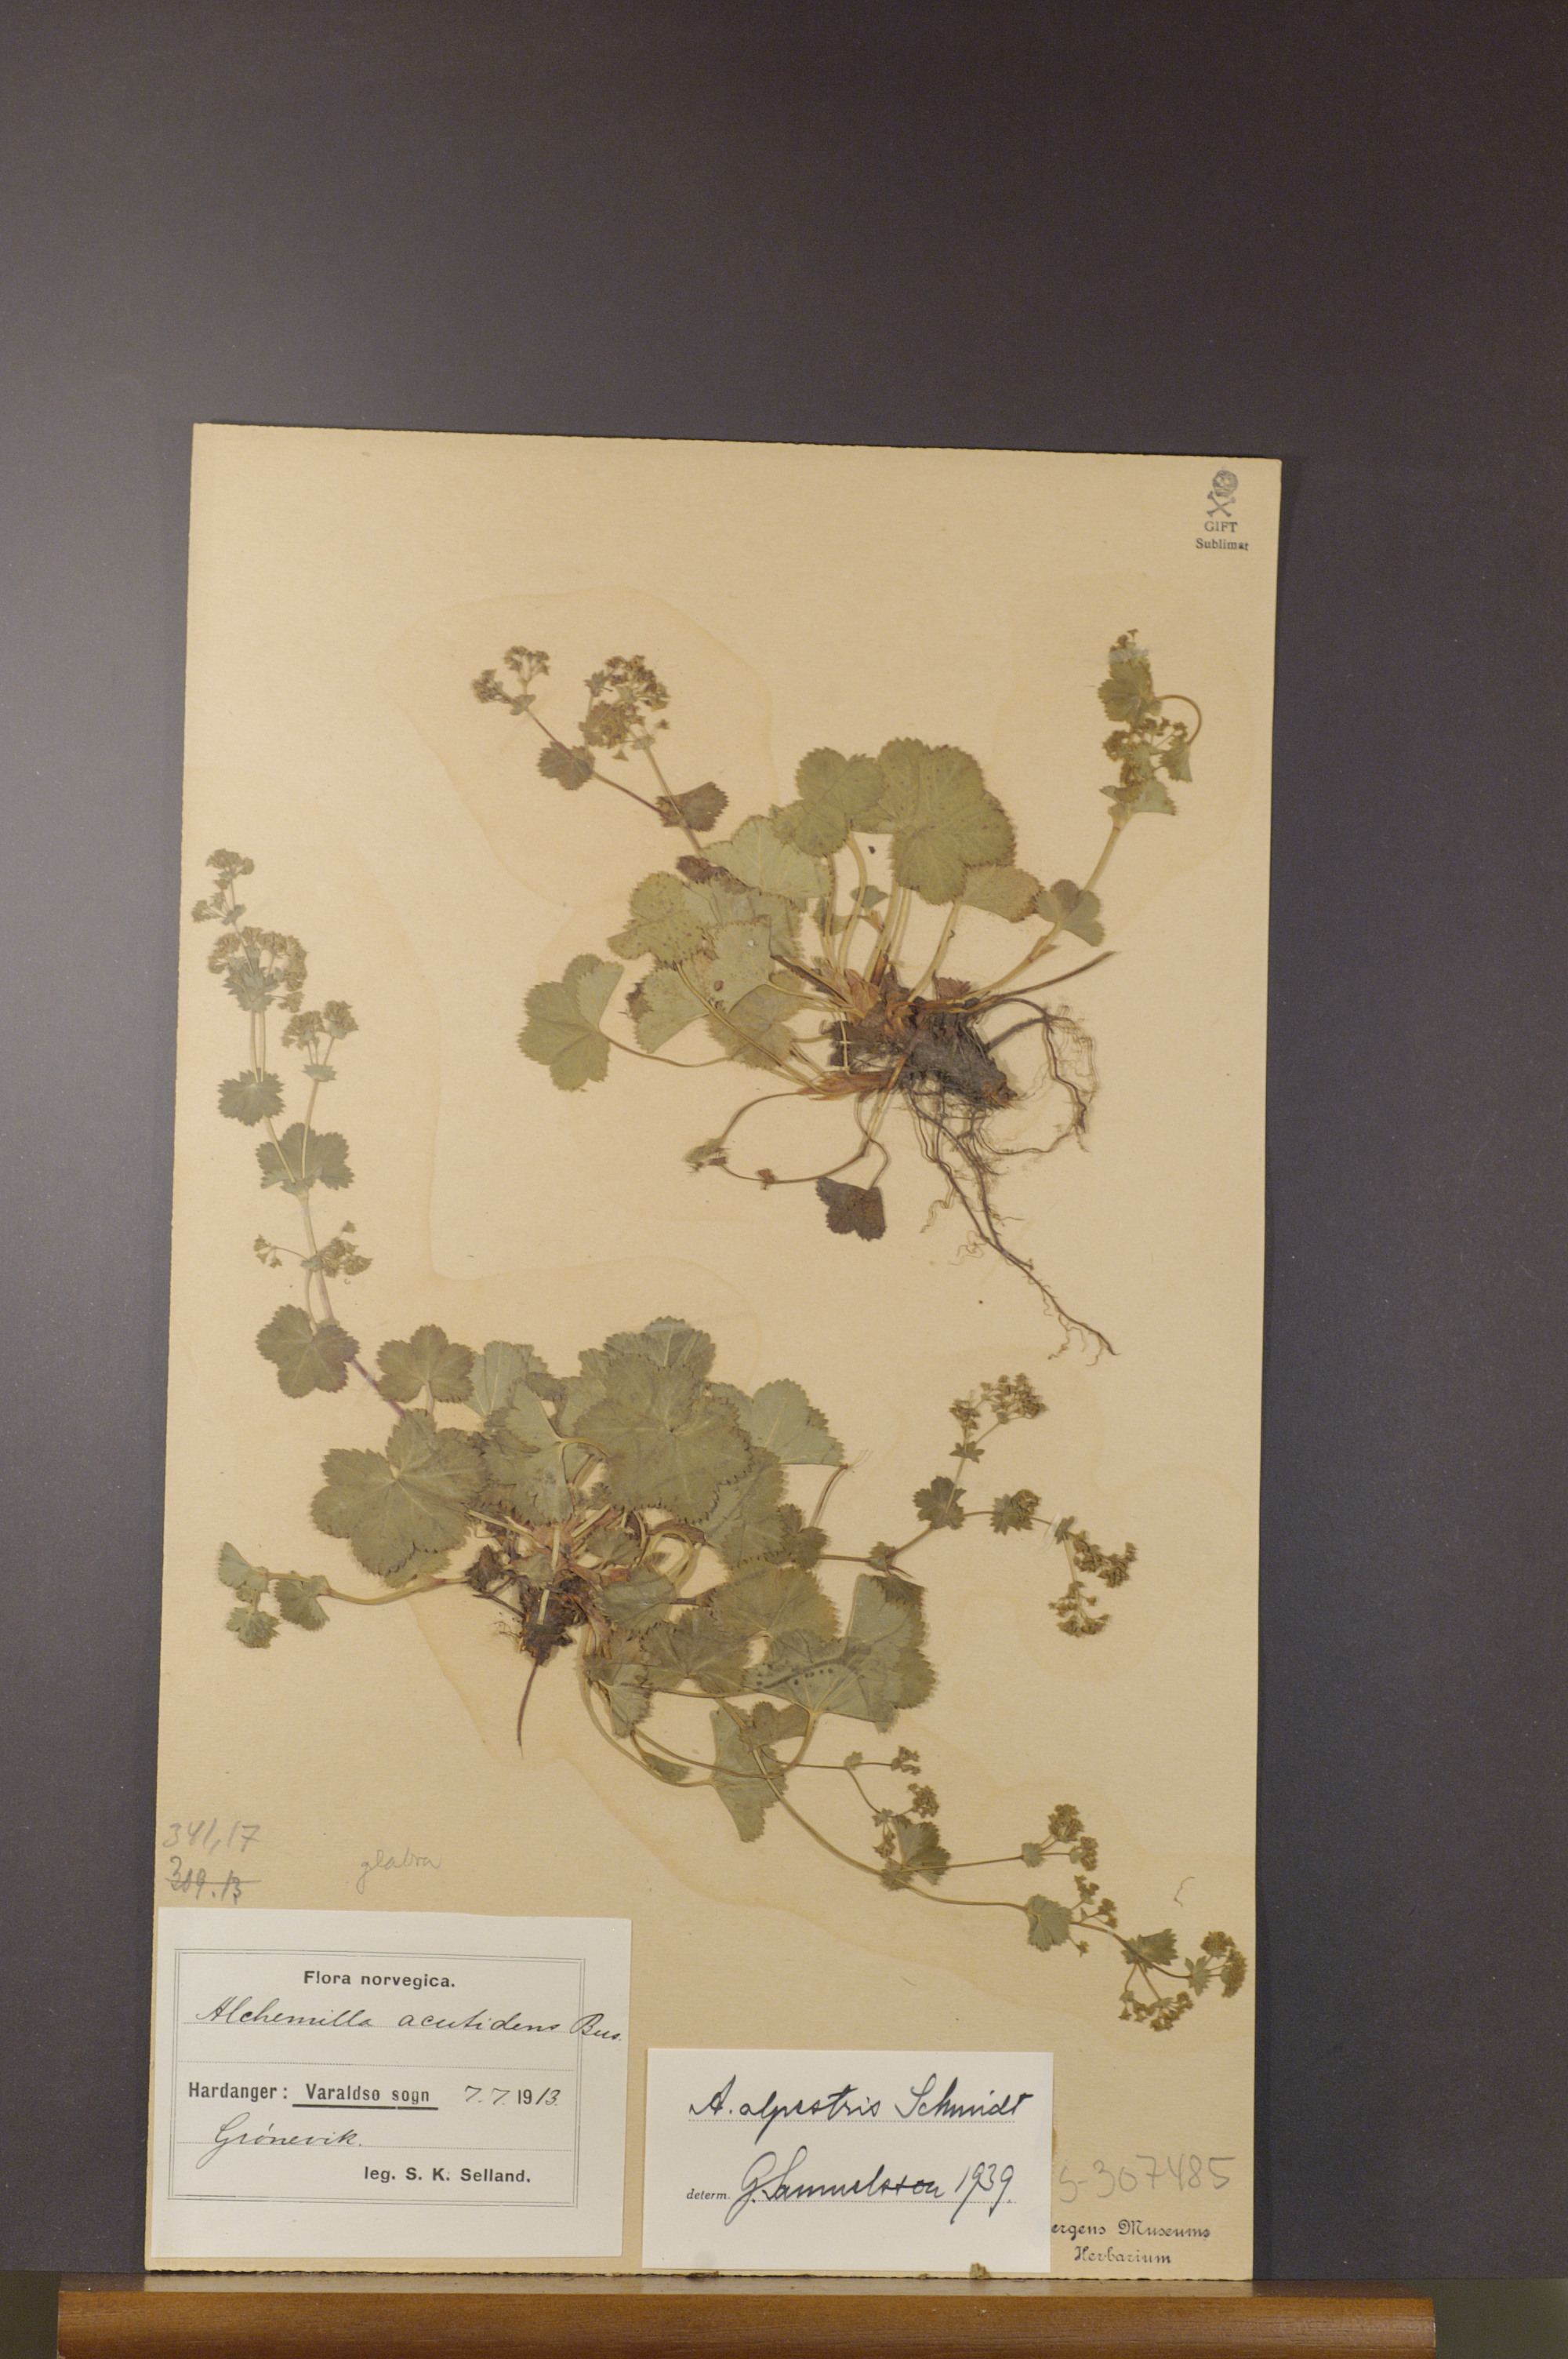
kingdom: Plantae
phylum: Tracheophyta
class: Magnoliopsida
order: Rosales
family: Rosaceae
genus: Alchemilla
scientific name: Alchemilla glabra
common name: Smooth lady's-mantle
